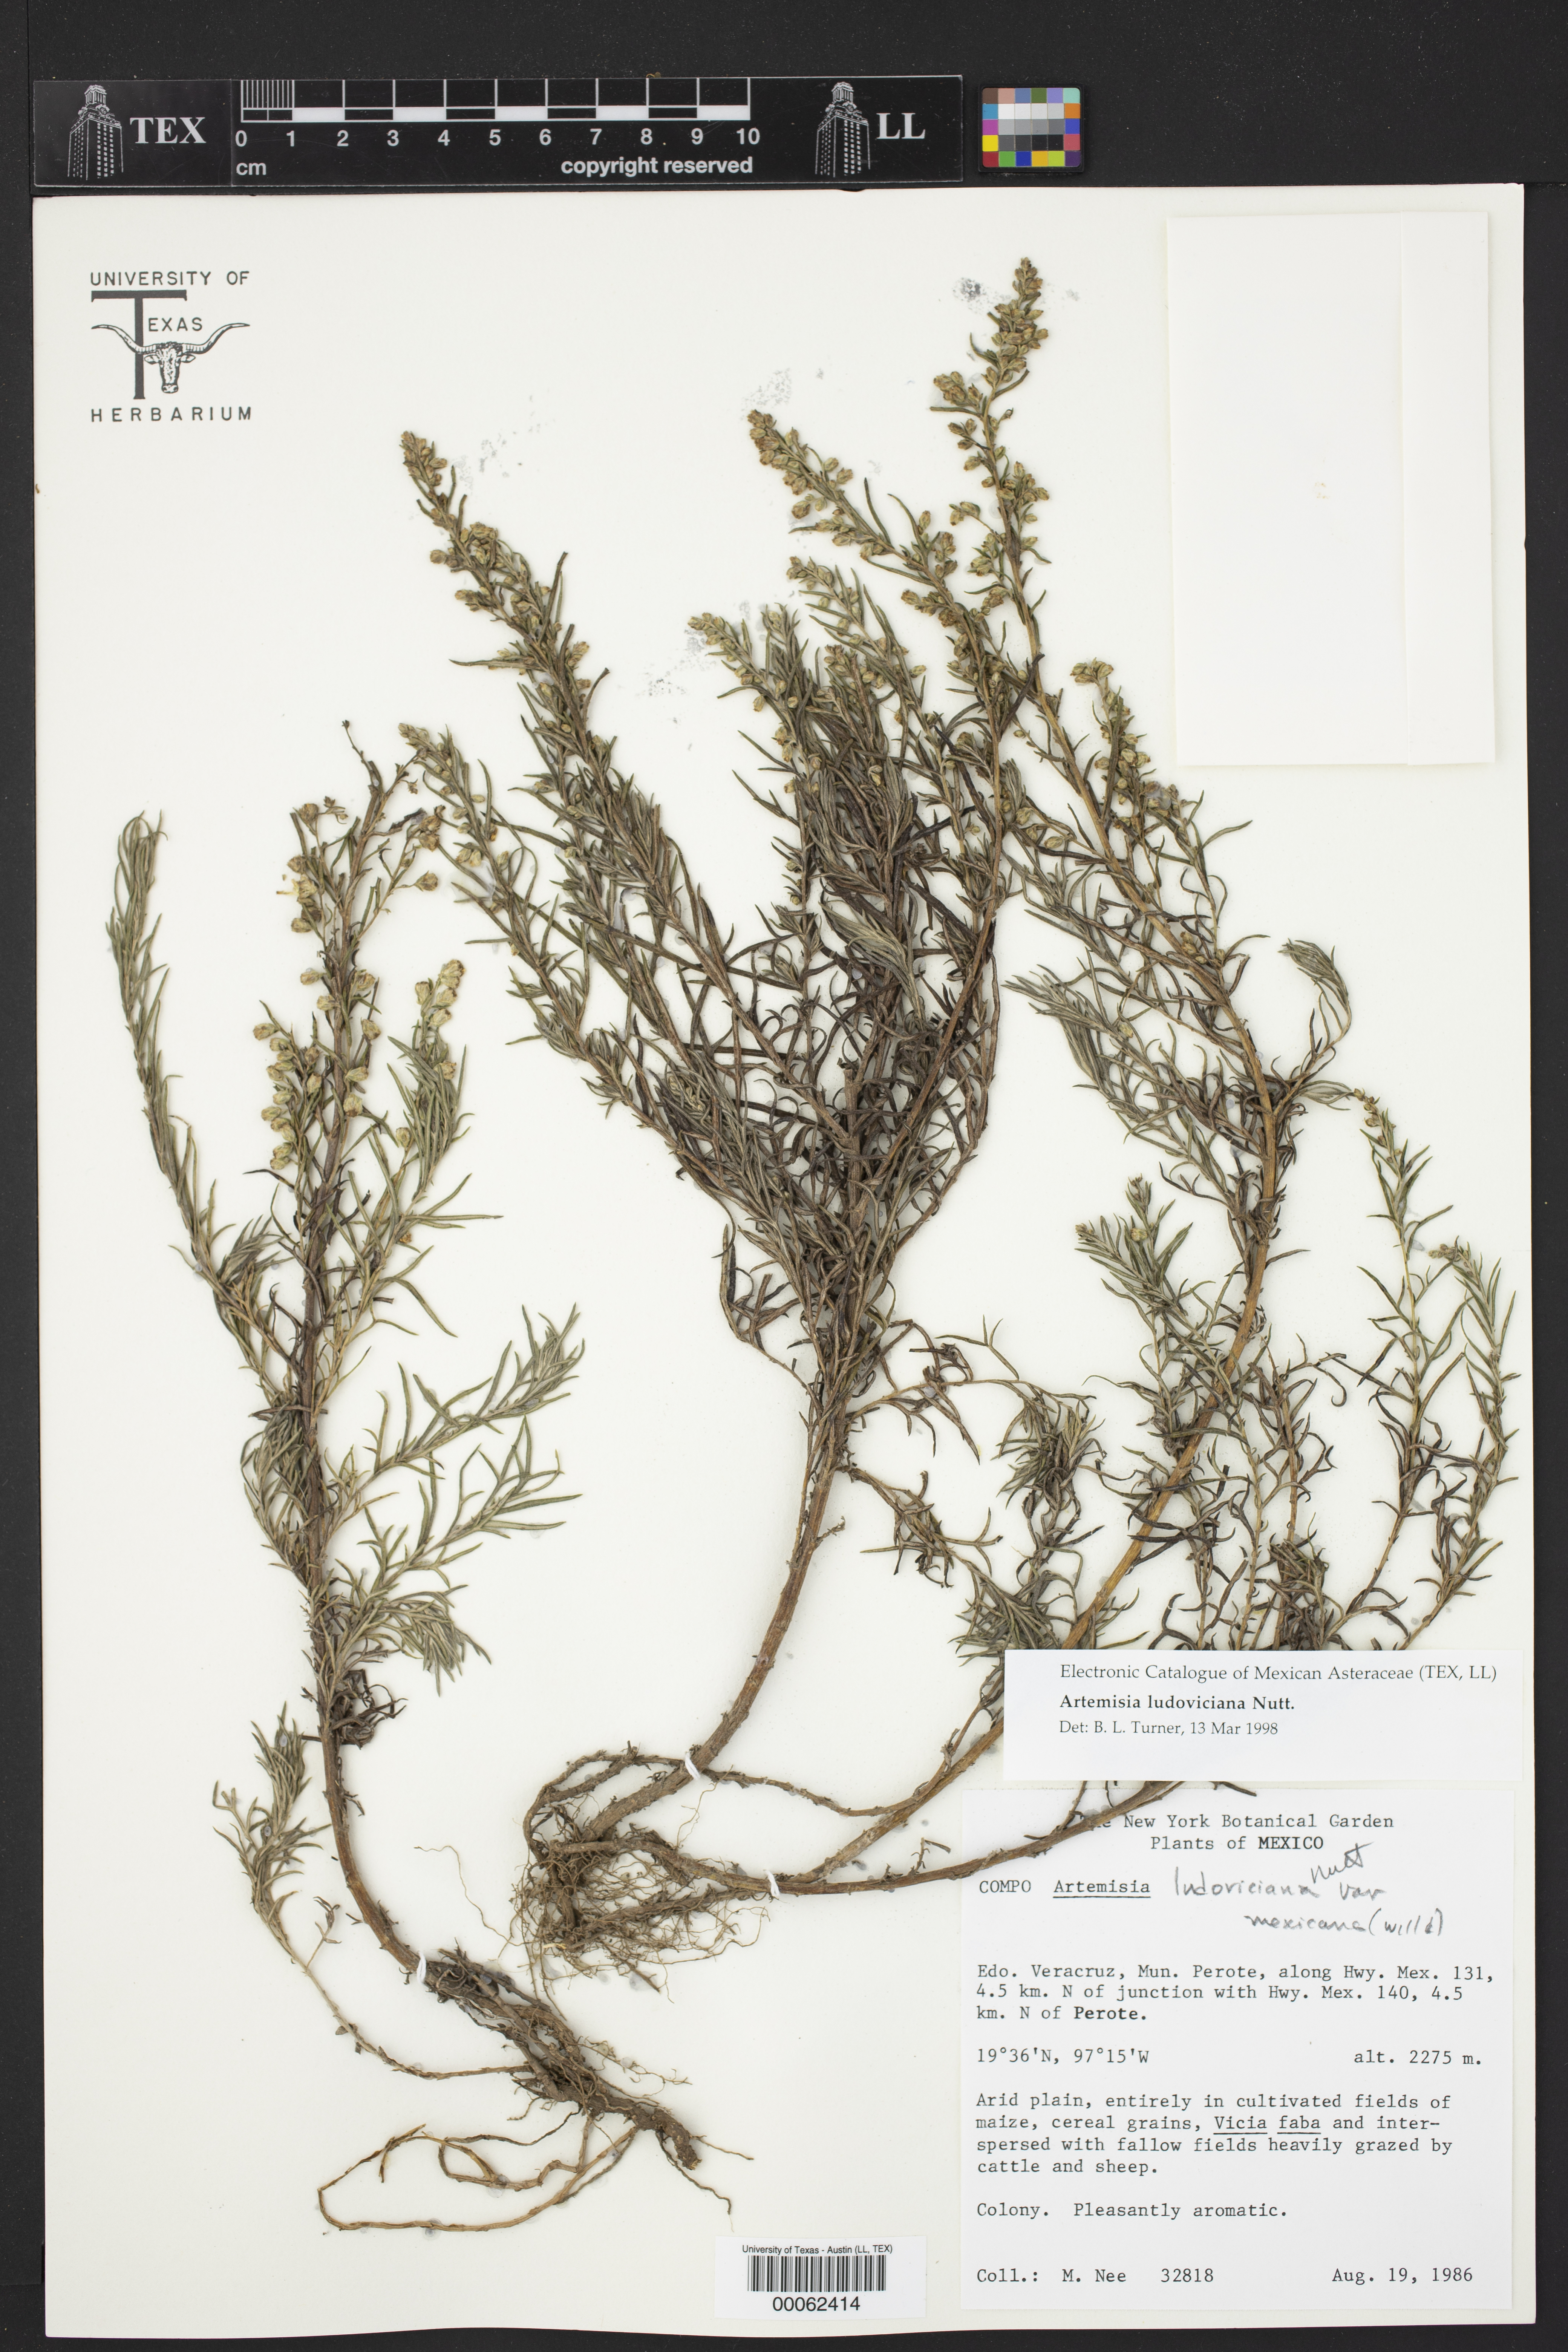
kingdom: Plantae
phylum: Tracheophyta
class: Magnoliopsida
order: Asterales
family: Asteraceae
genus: Artemisia
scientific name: Artemisia ludoviciana
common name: Western mugwort
